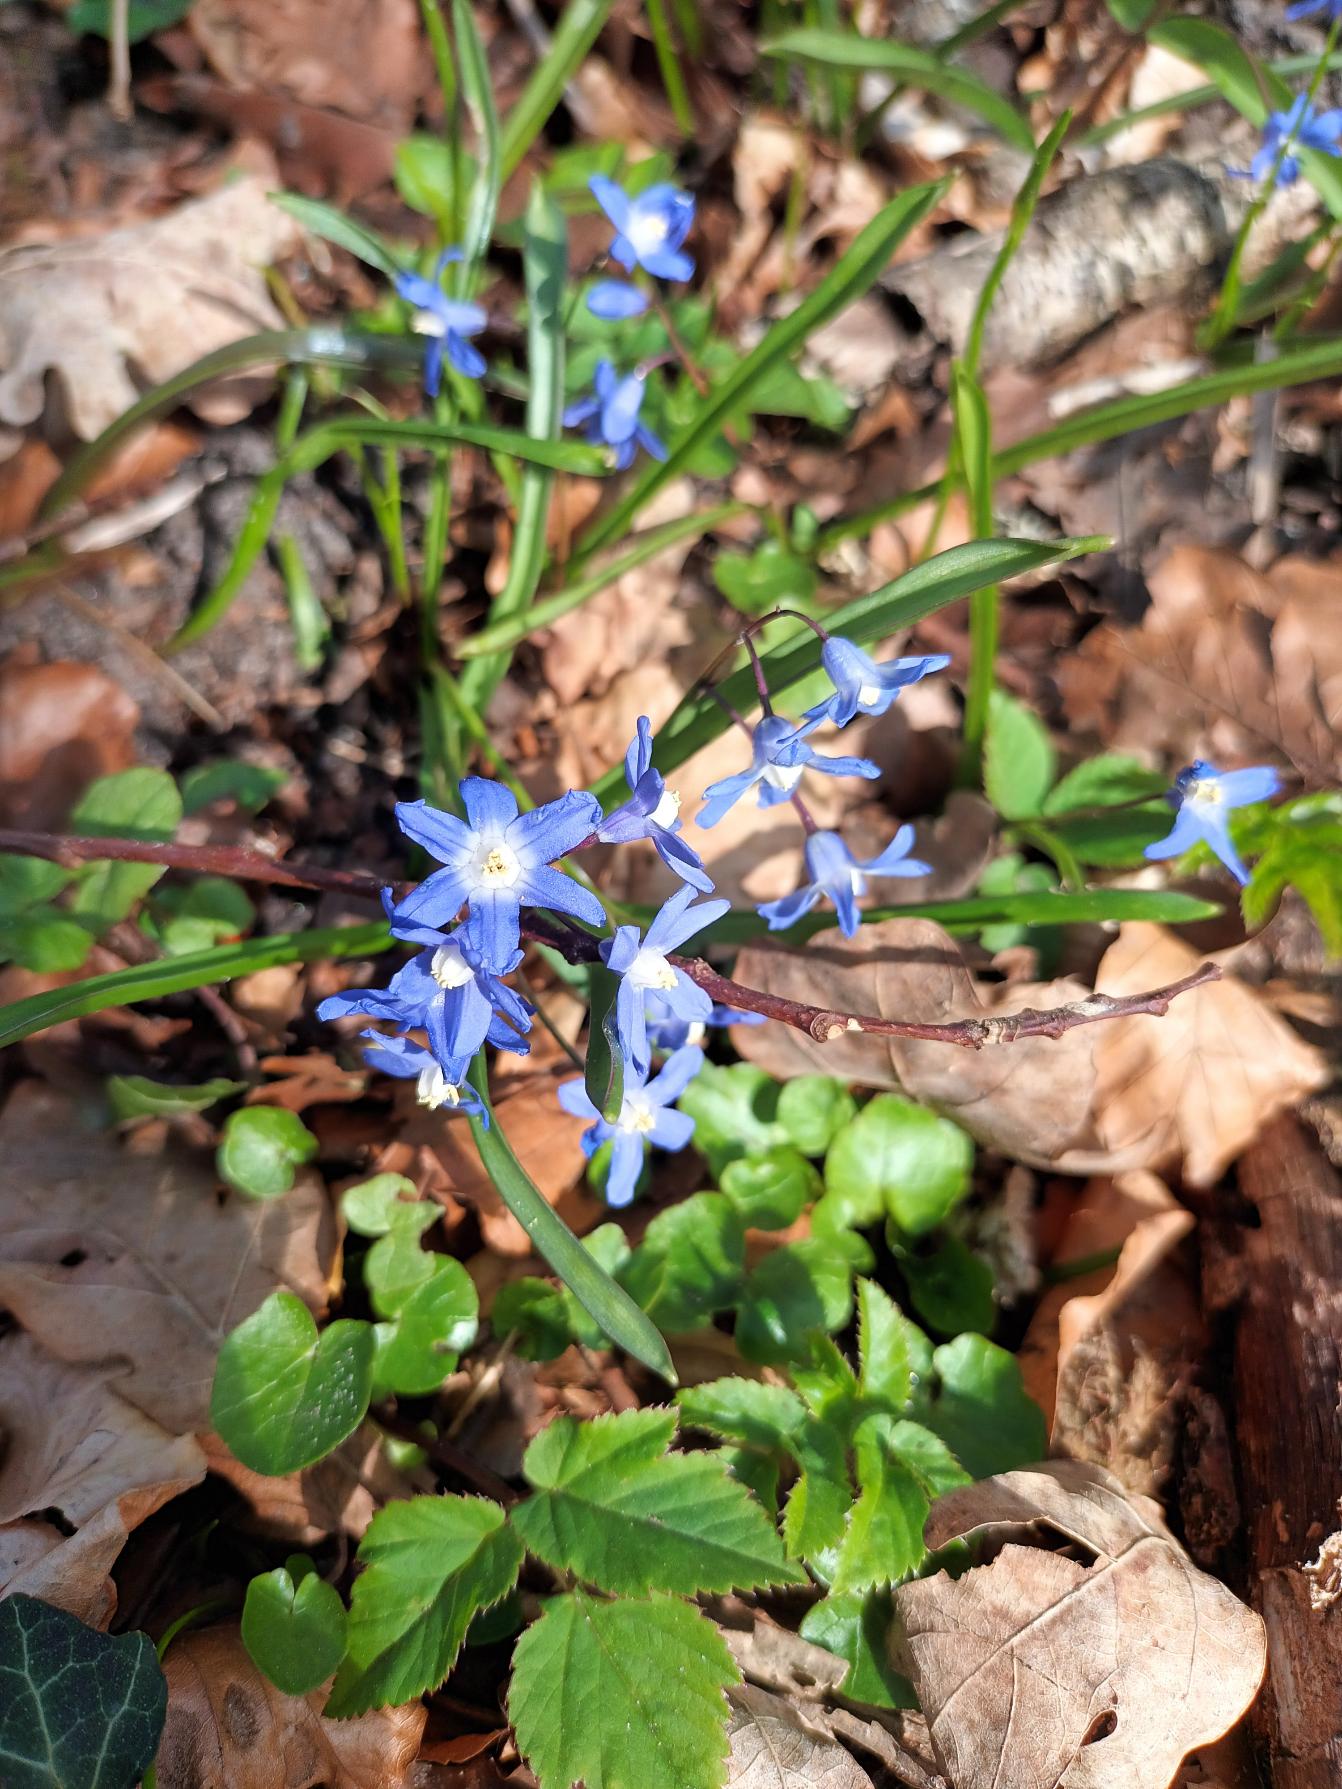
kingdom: Plantae
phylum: Tracheophyta
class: Liliopsida
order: Asparagales
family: Asparagaceae
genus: Scilla
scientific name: Scilla sardensis
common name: Liden snepryd
